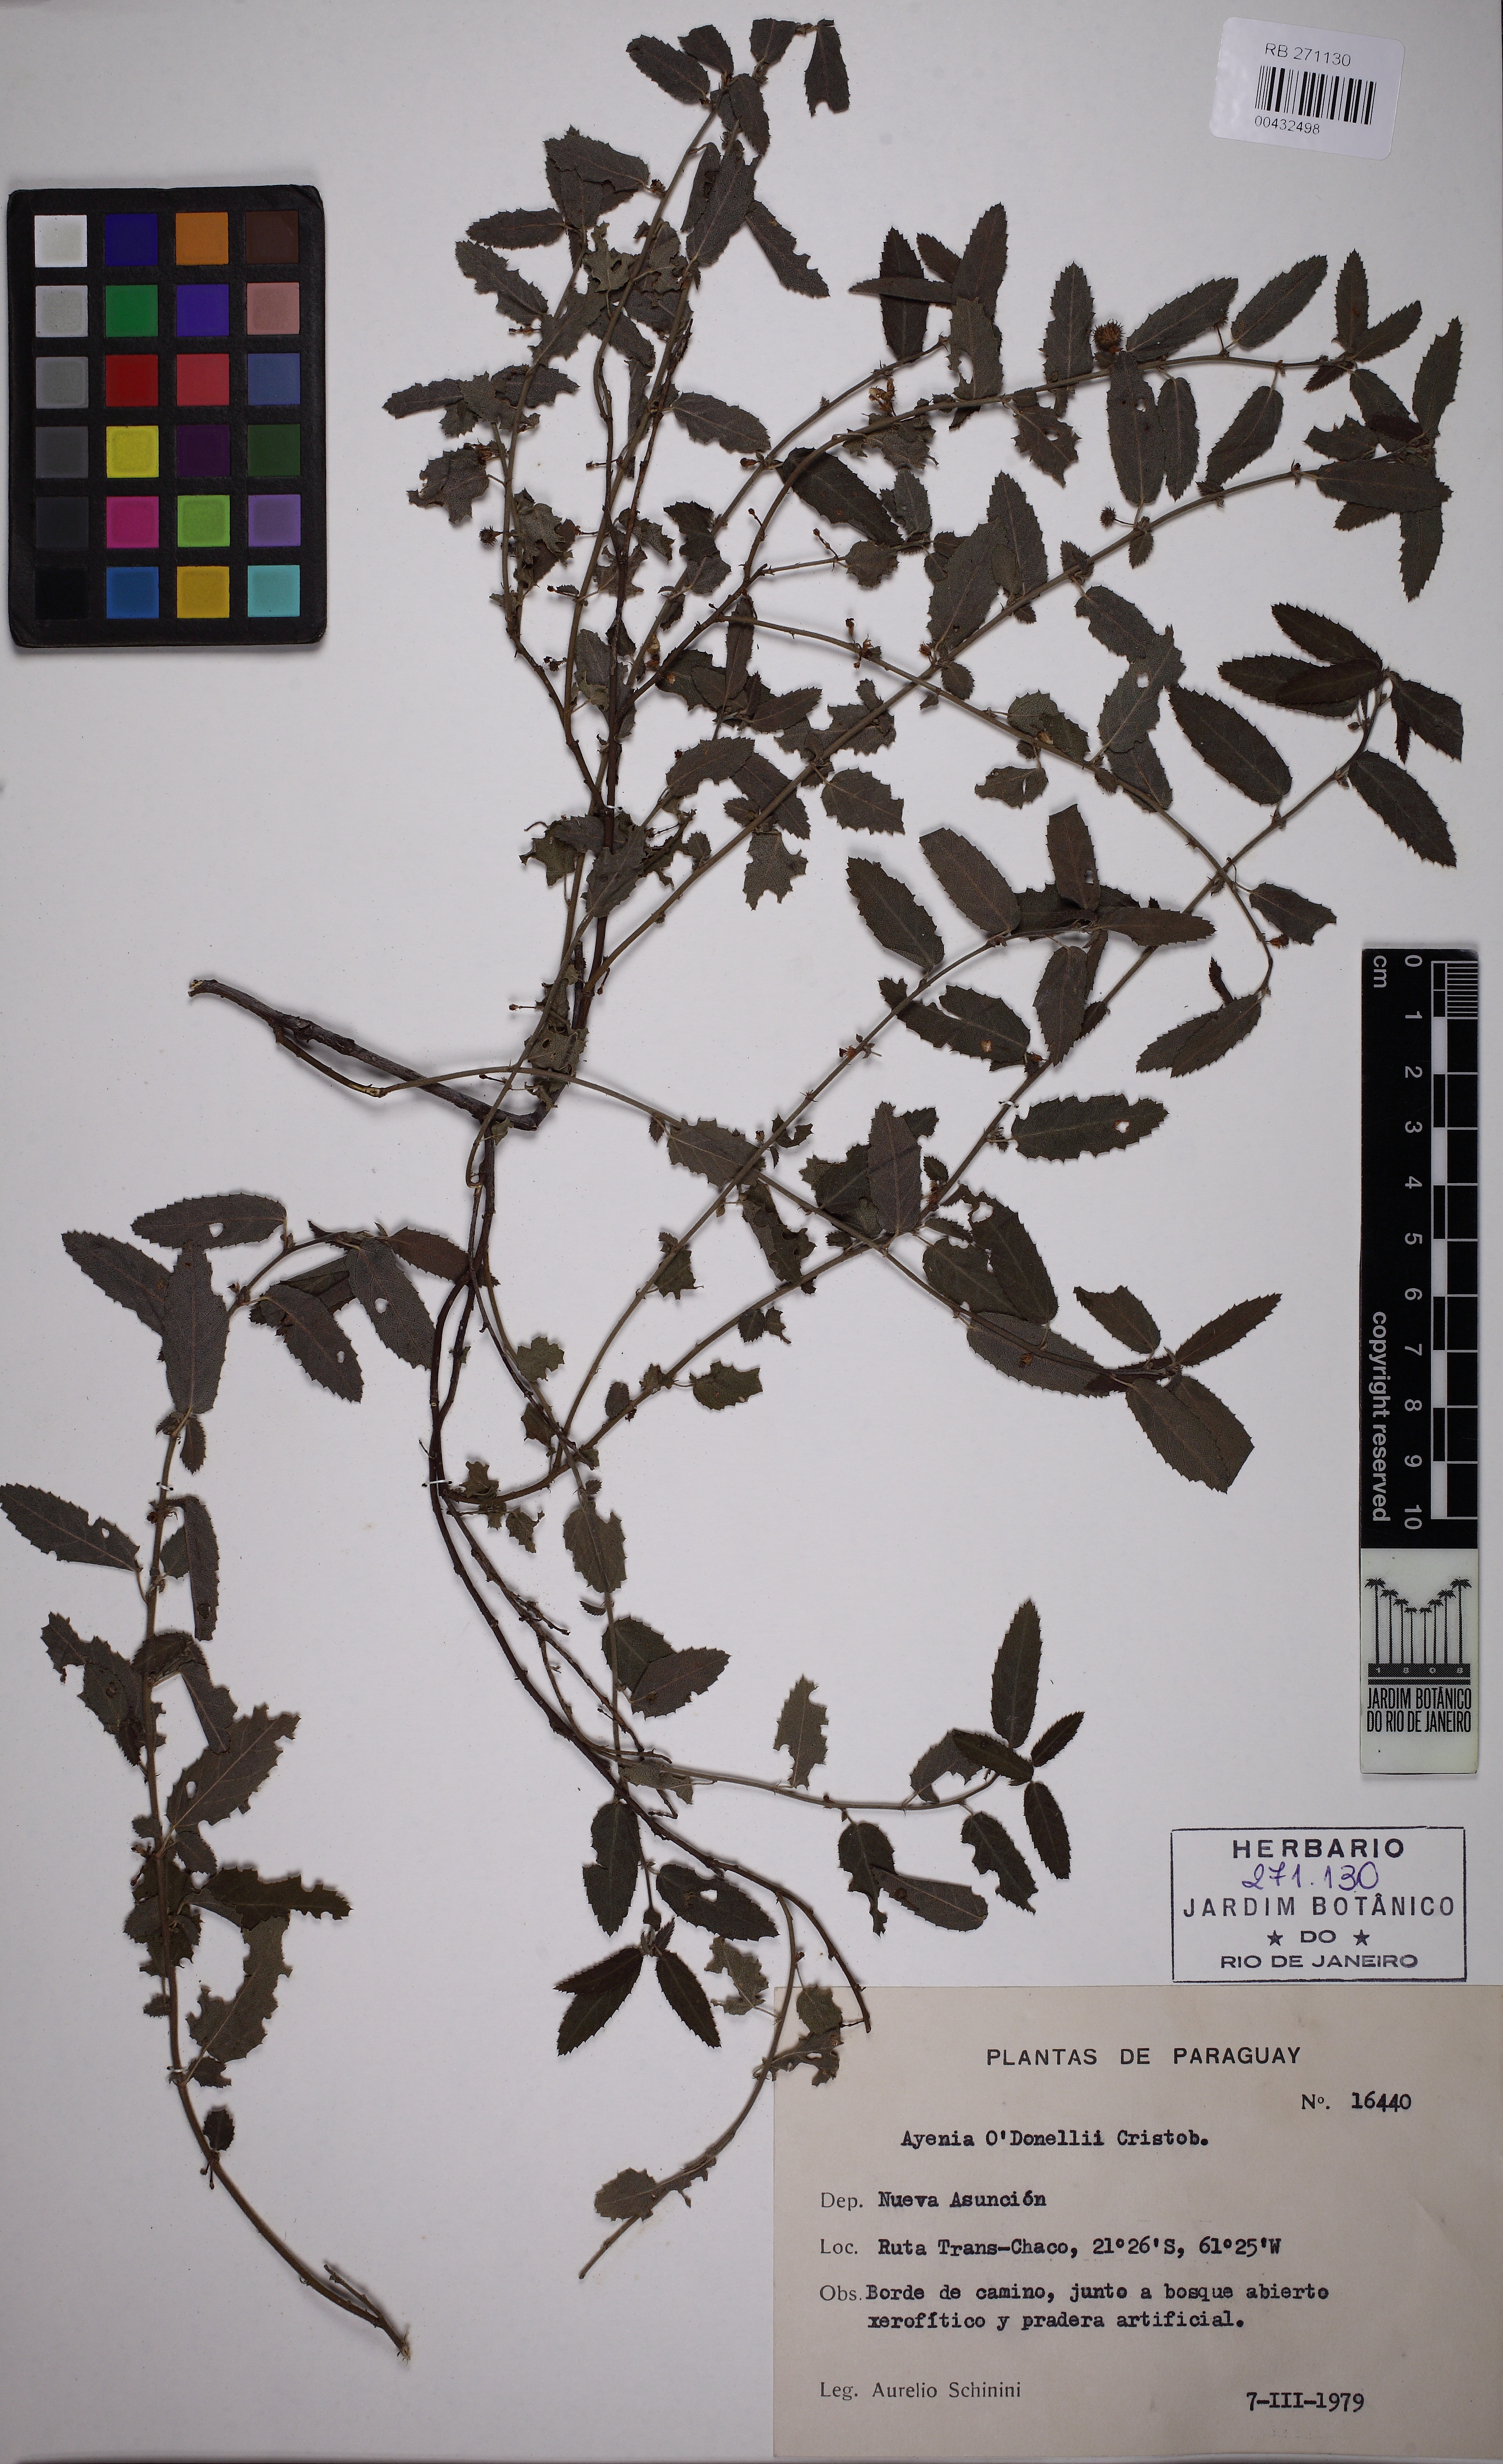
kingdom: Plantae
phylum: Tracheophyta
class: Magnoliopsida
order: Malvales
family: Malvaceae
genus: Ayenia
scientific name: Ayenia odonellii
